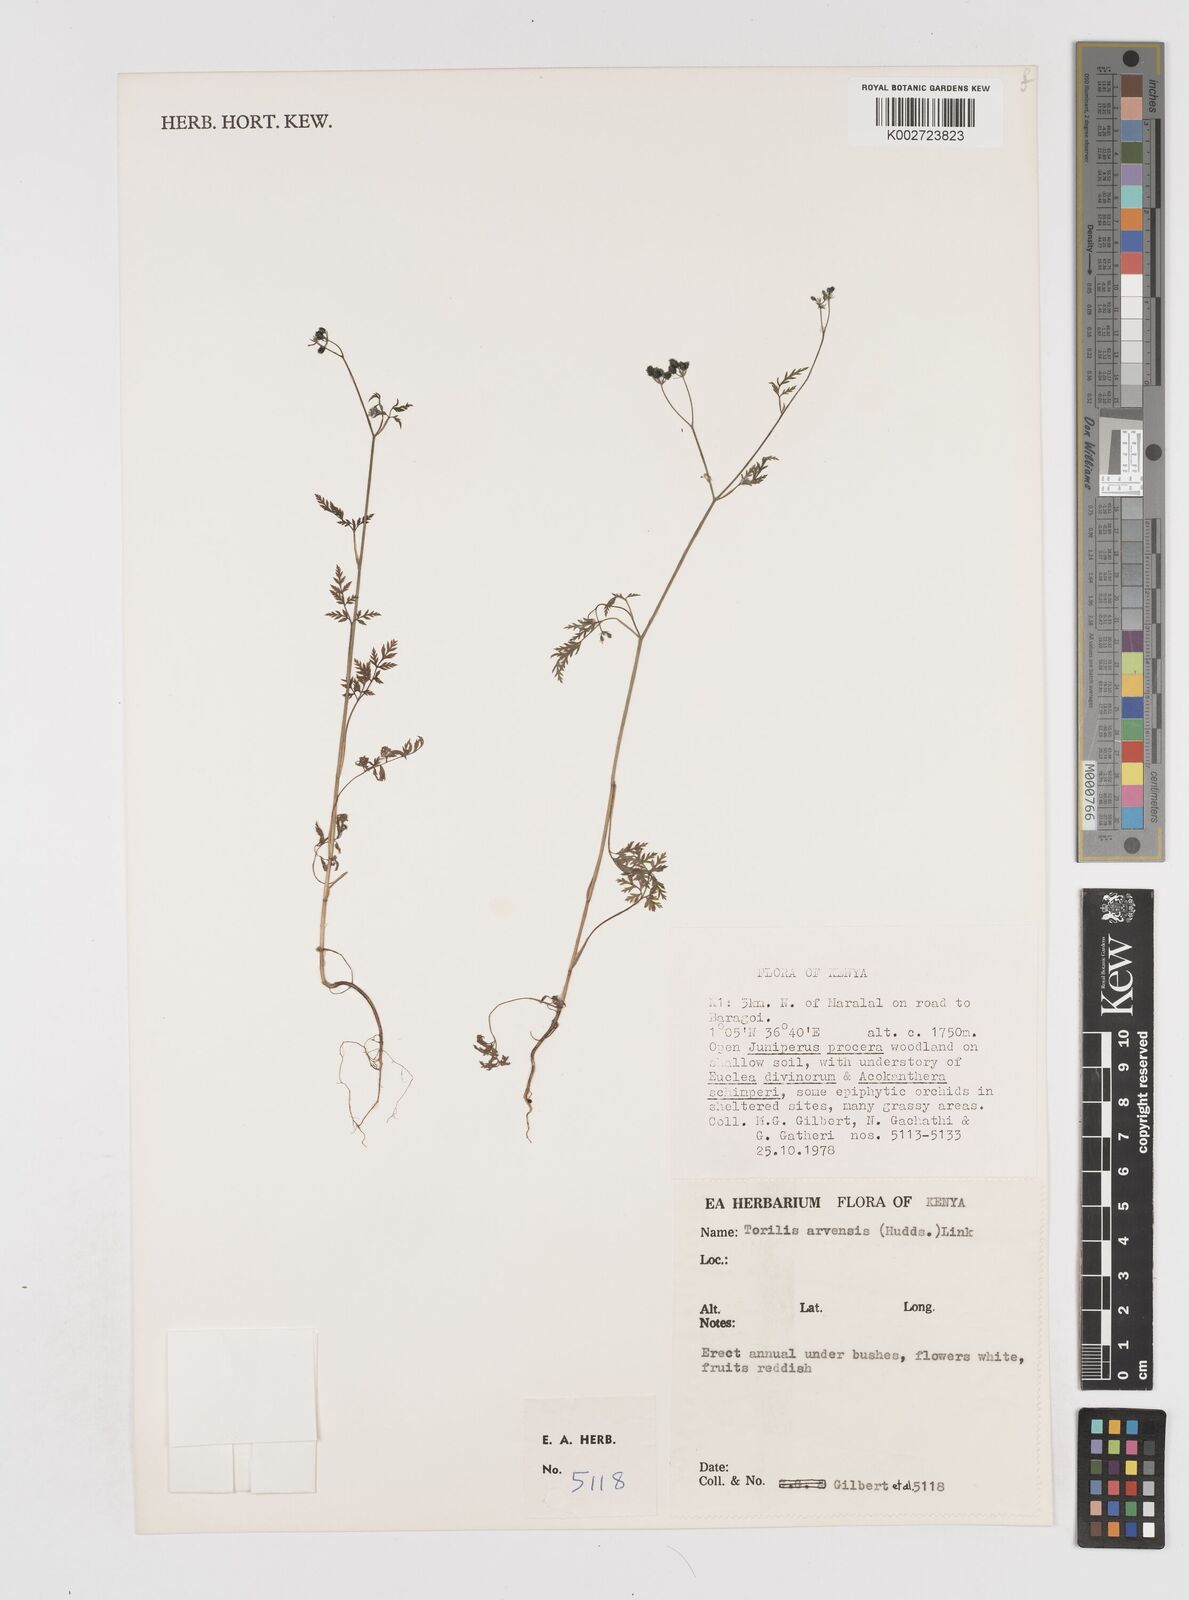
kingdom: Plantae
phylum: Tracheophyta
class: Magnoliopsida
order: Apiales
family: Apiaceae
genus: Torilis
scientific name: Torilis arvensis
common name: Spreading hedge-parsley
